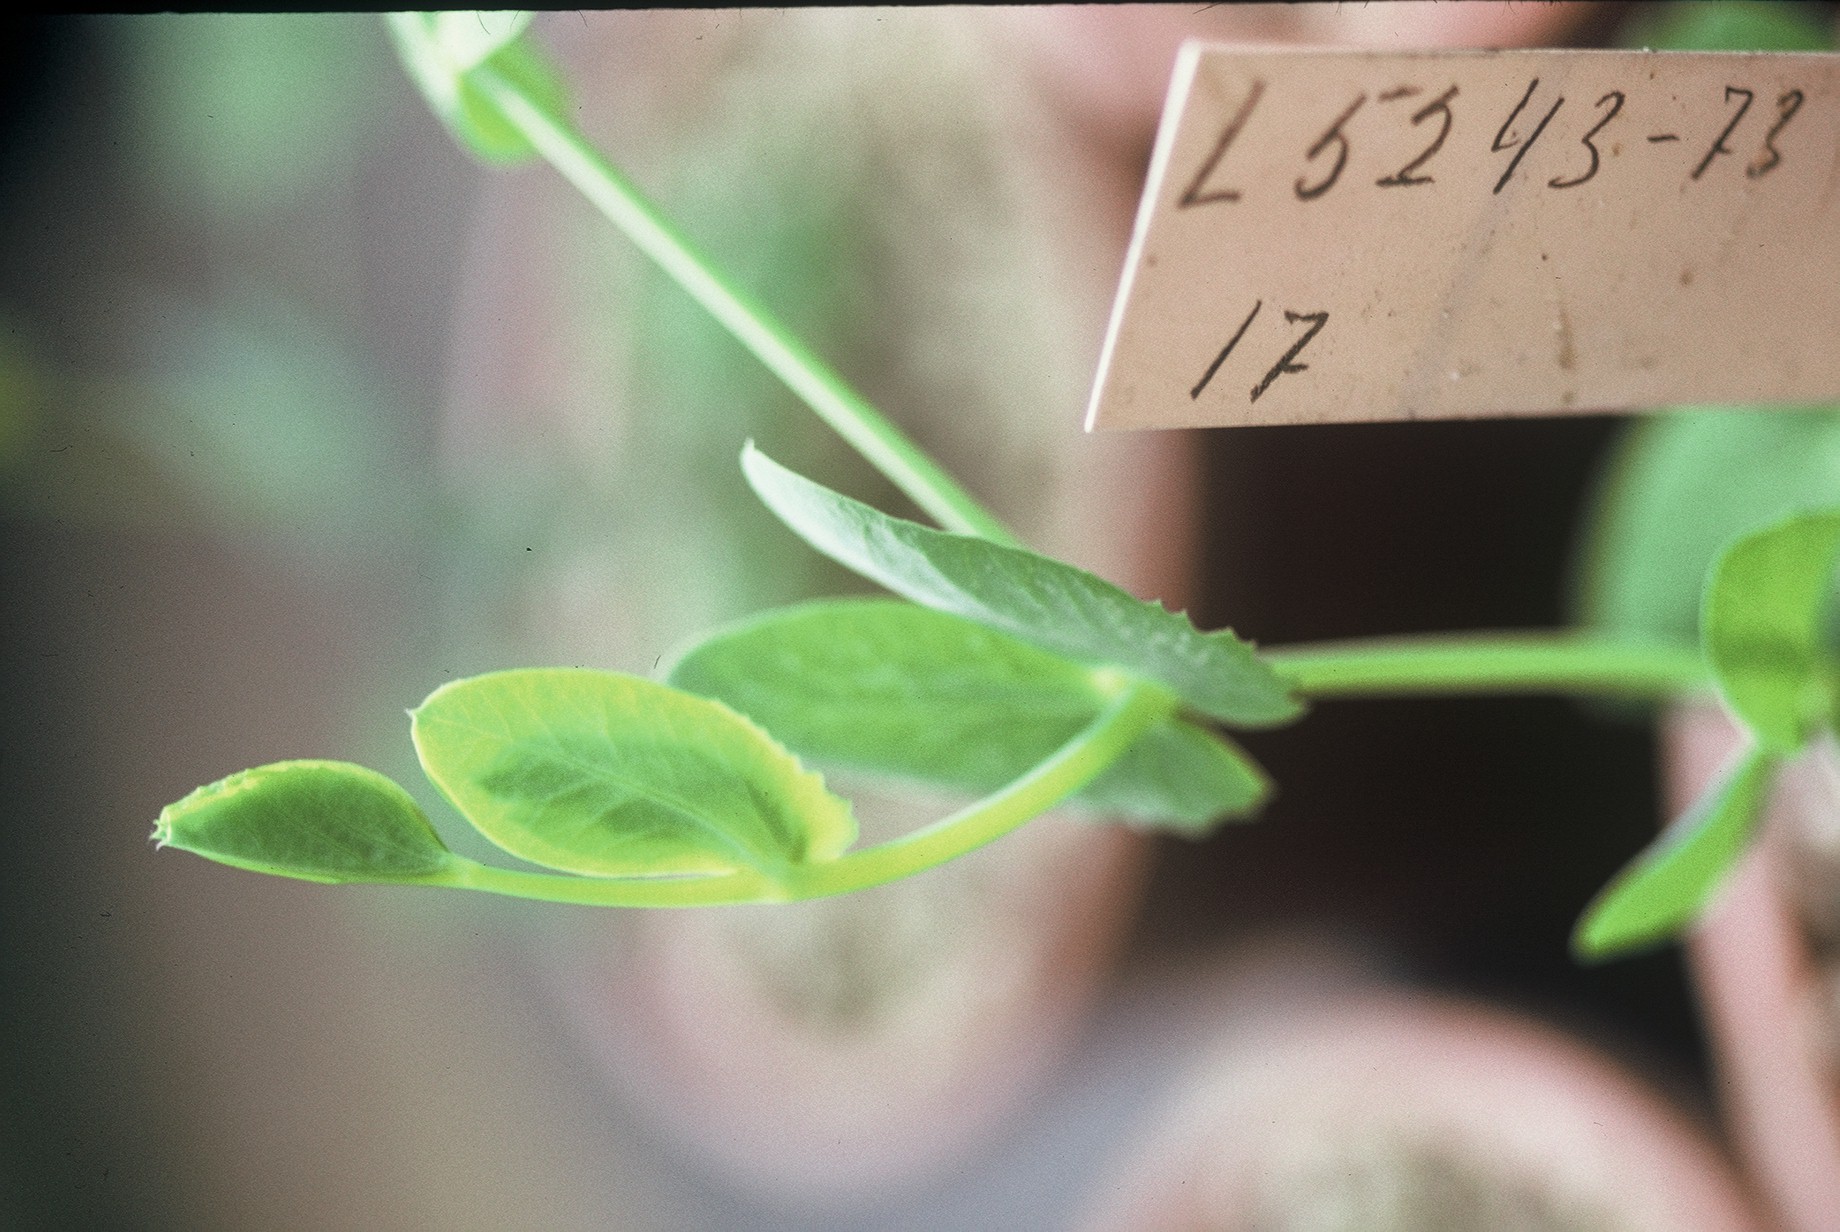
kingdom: Plantae
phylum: Tracheophyta
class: Magnoliopsida
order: Fabales
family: Fabaceae
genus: Lathyrus
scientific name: Lathyrus oleraceus
